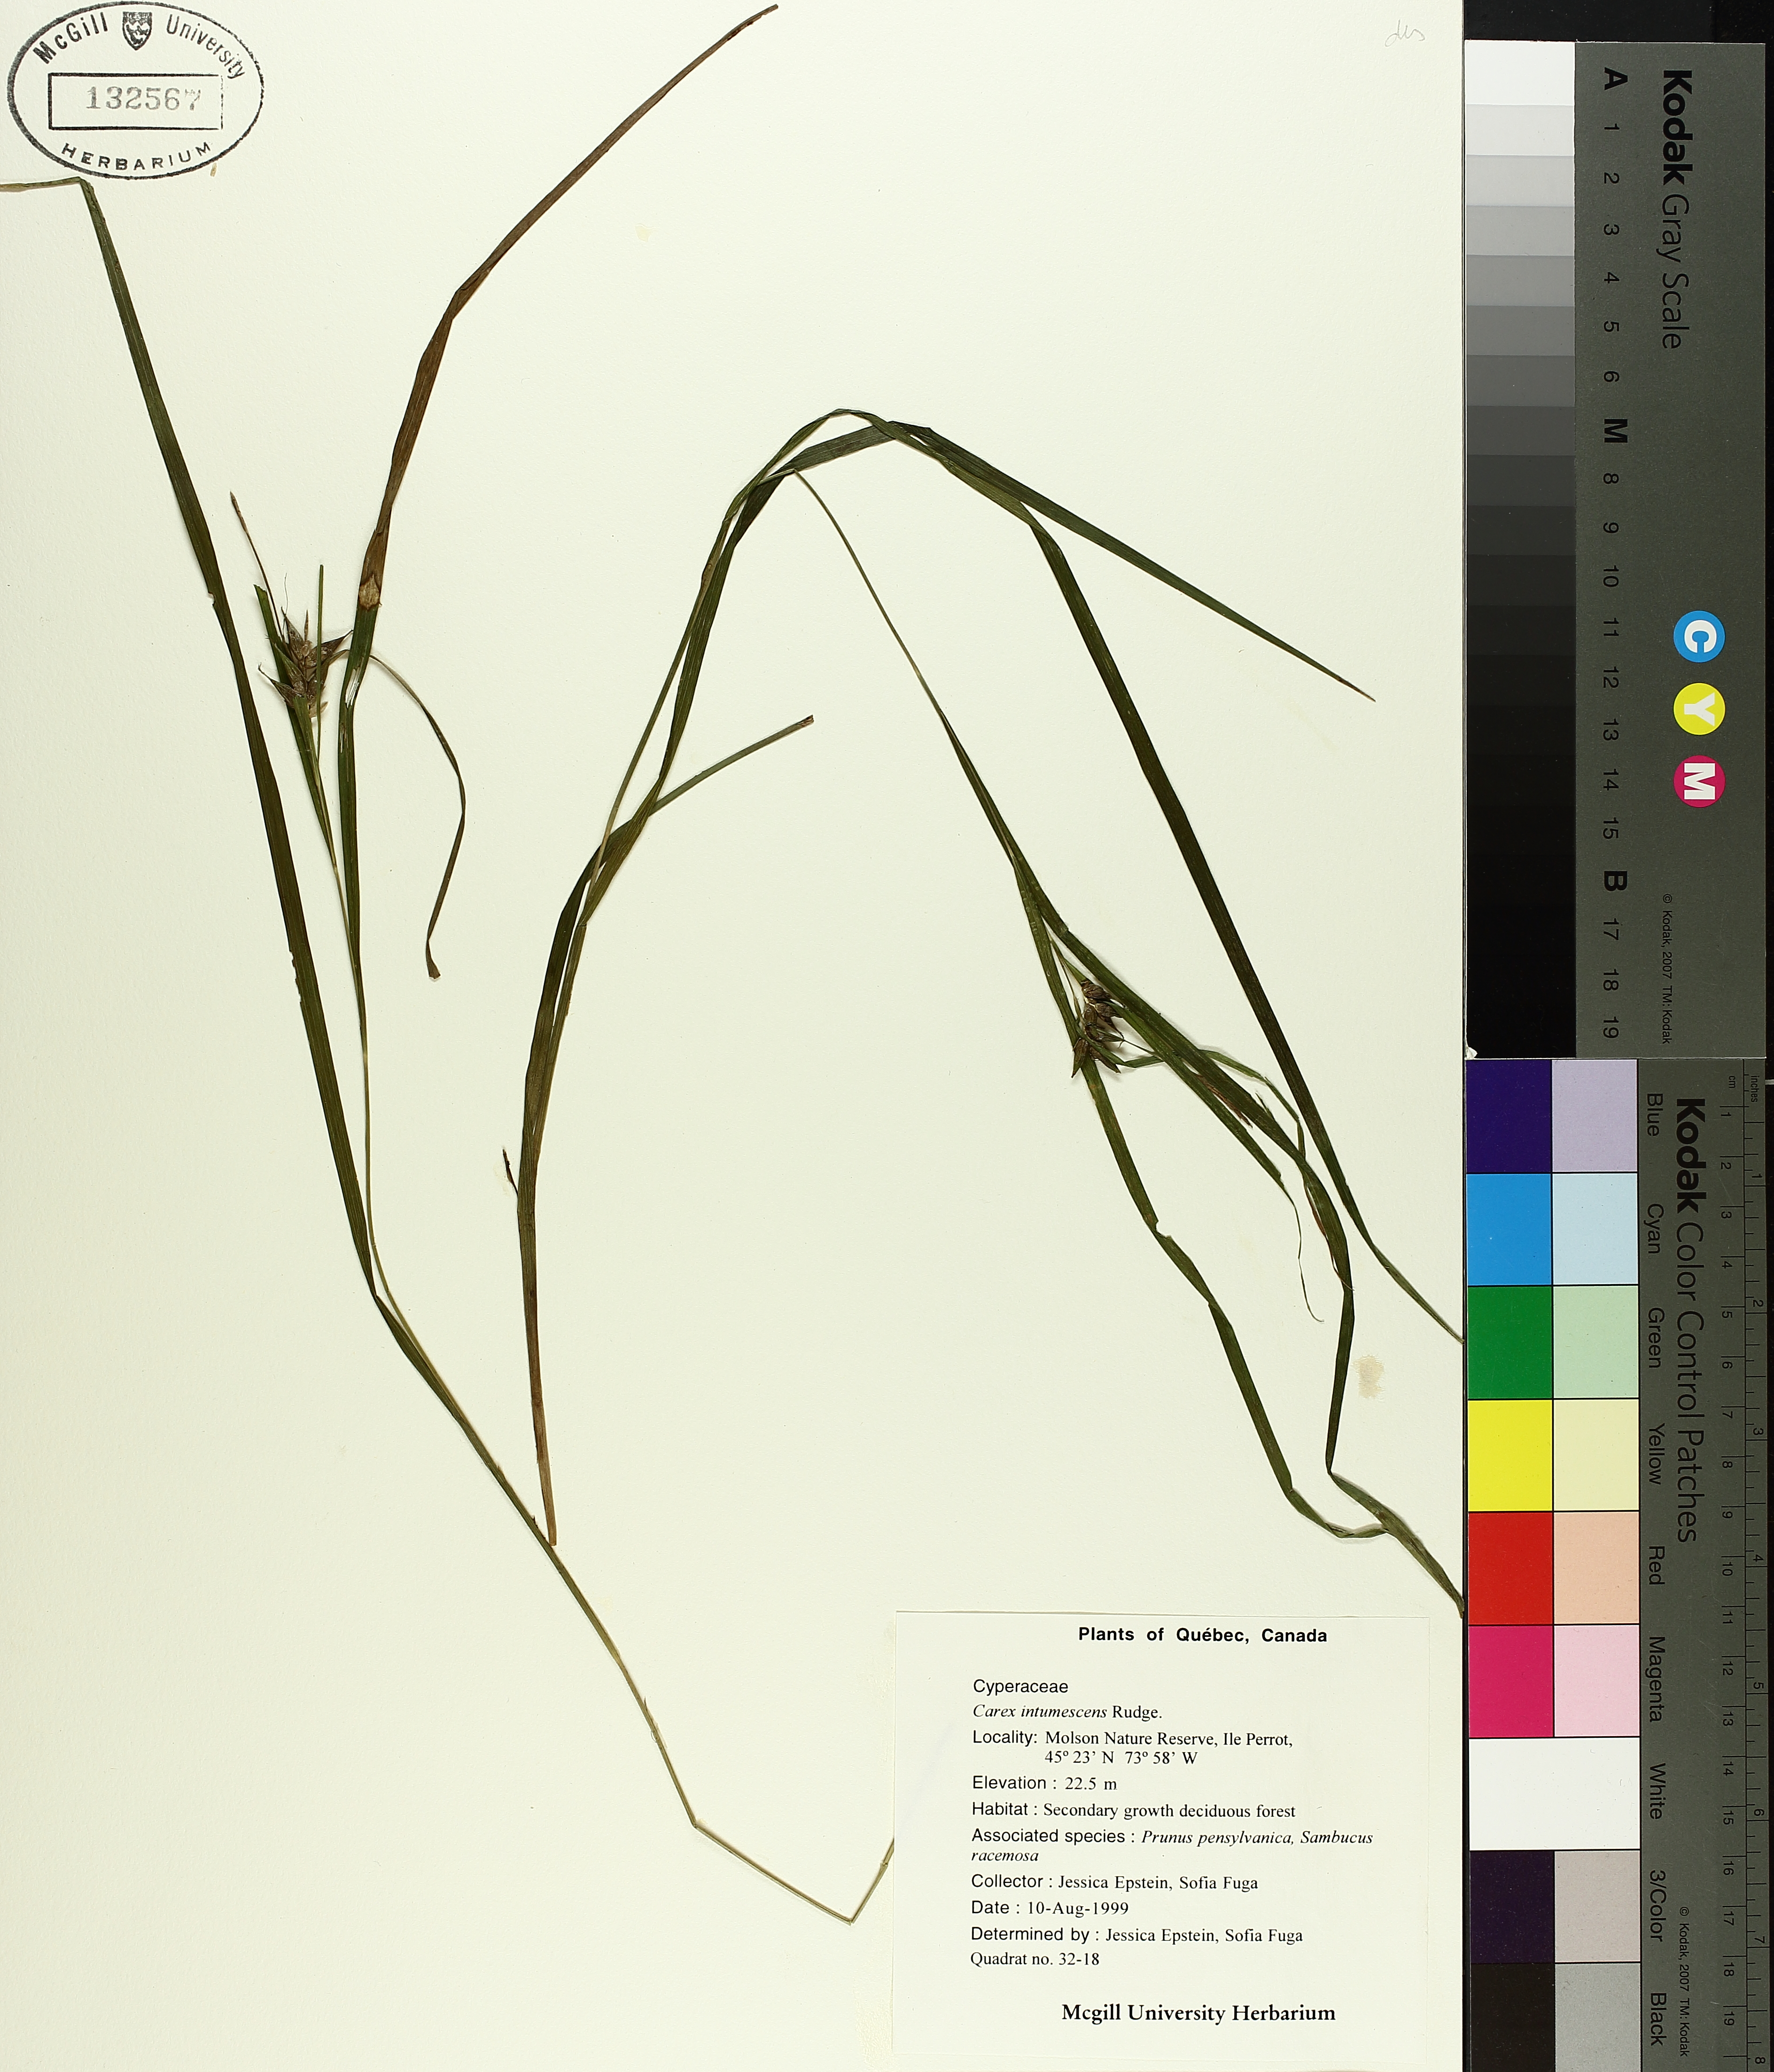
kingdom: Plantae
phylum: Tracheophyta
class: Liliopsida
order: Poales
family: Cyperaceae
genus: Carex
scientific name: Carex intumescens
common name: Greater bladder sedge
